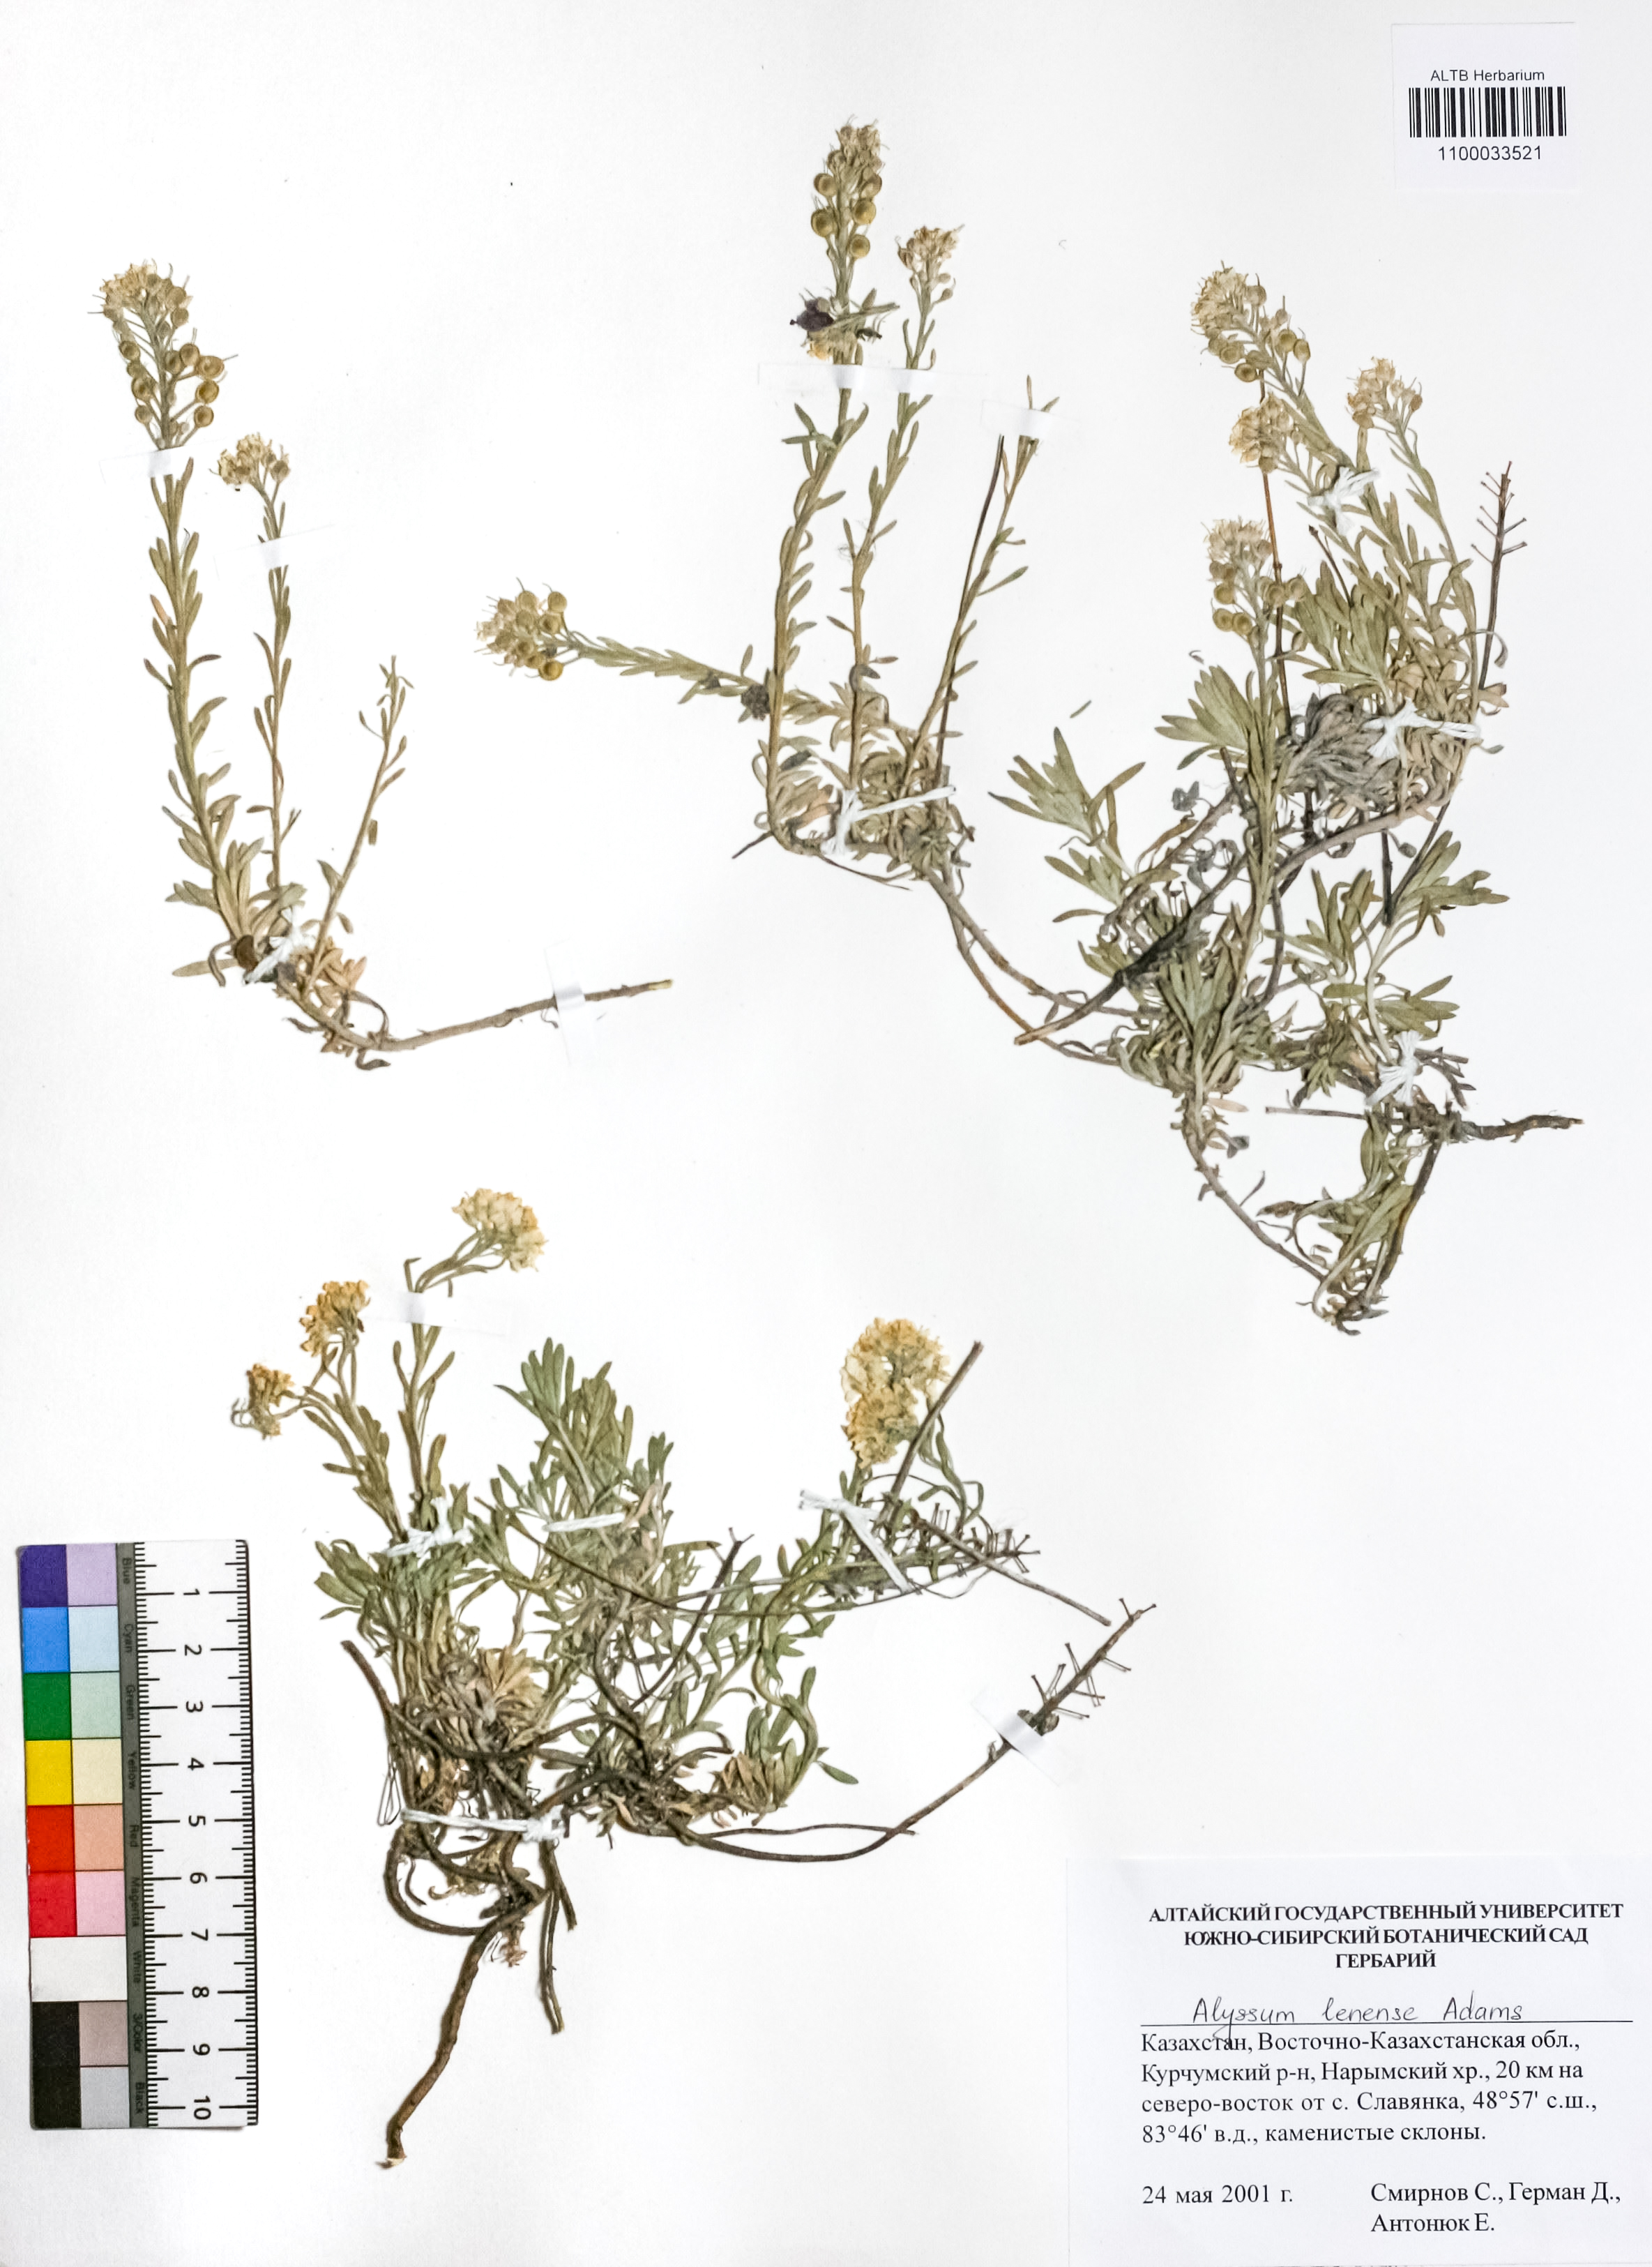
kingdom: Plantae
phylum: Tracheophyta
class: Magnoliopsida
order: Brassicales
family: Brassicaceae
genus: Alyssum
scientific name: Alyssum lenense
